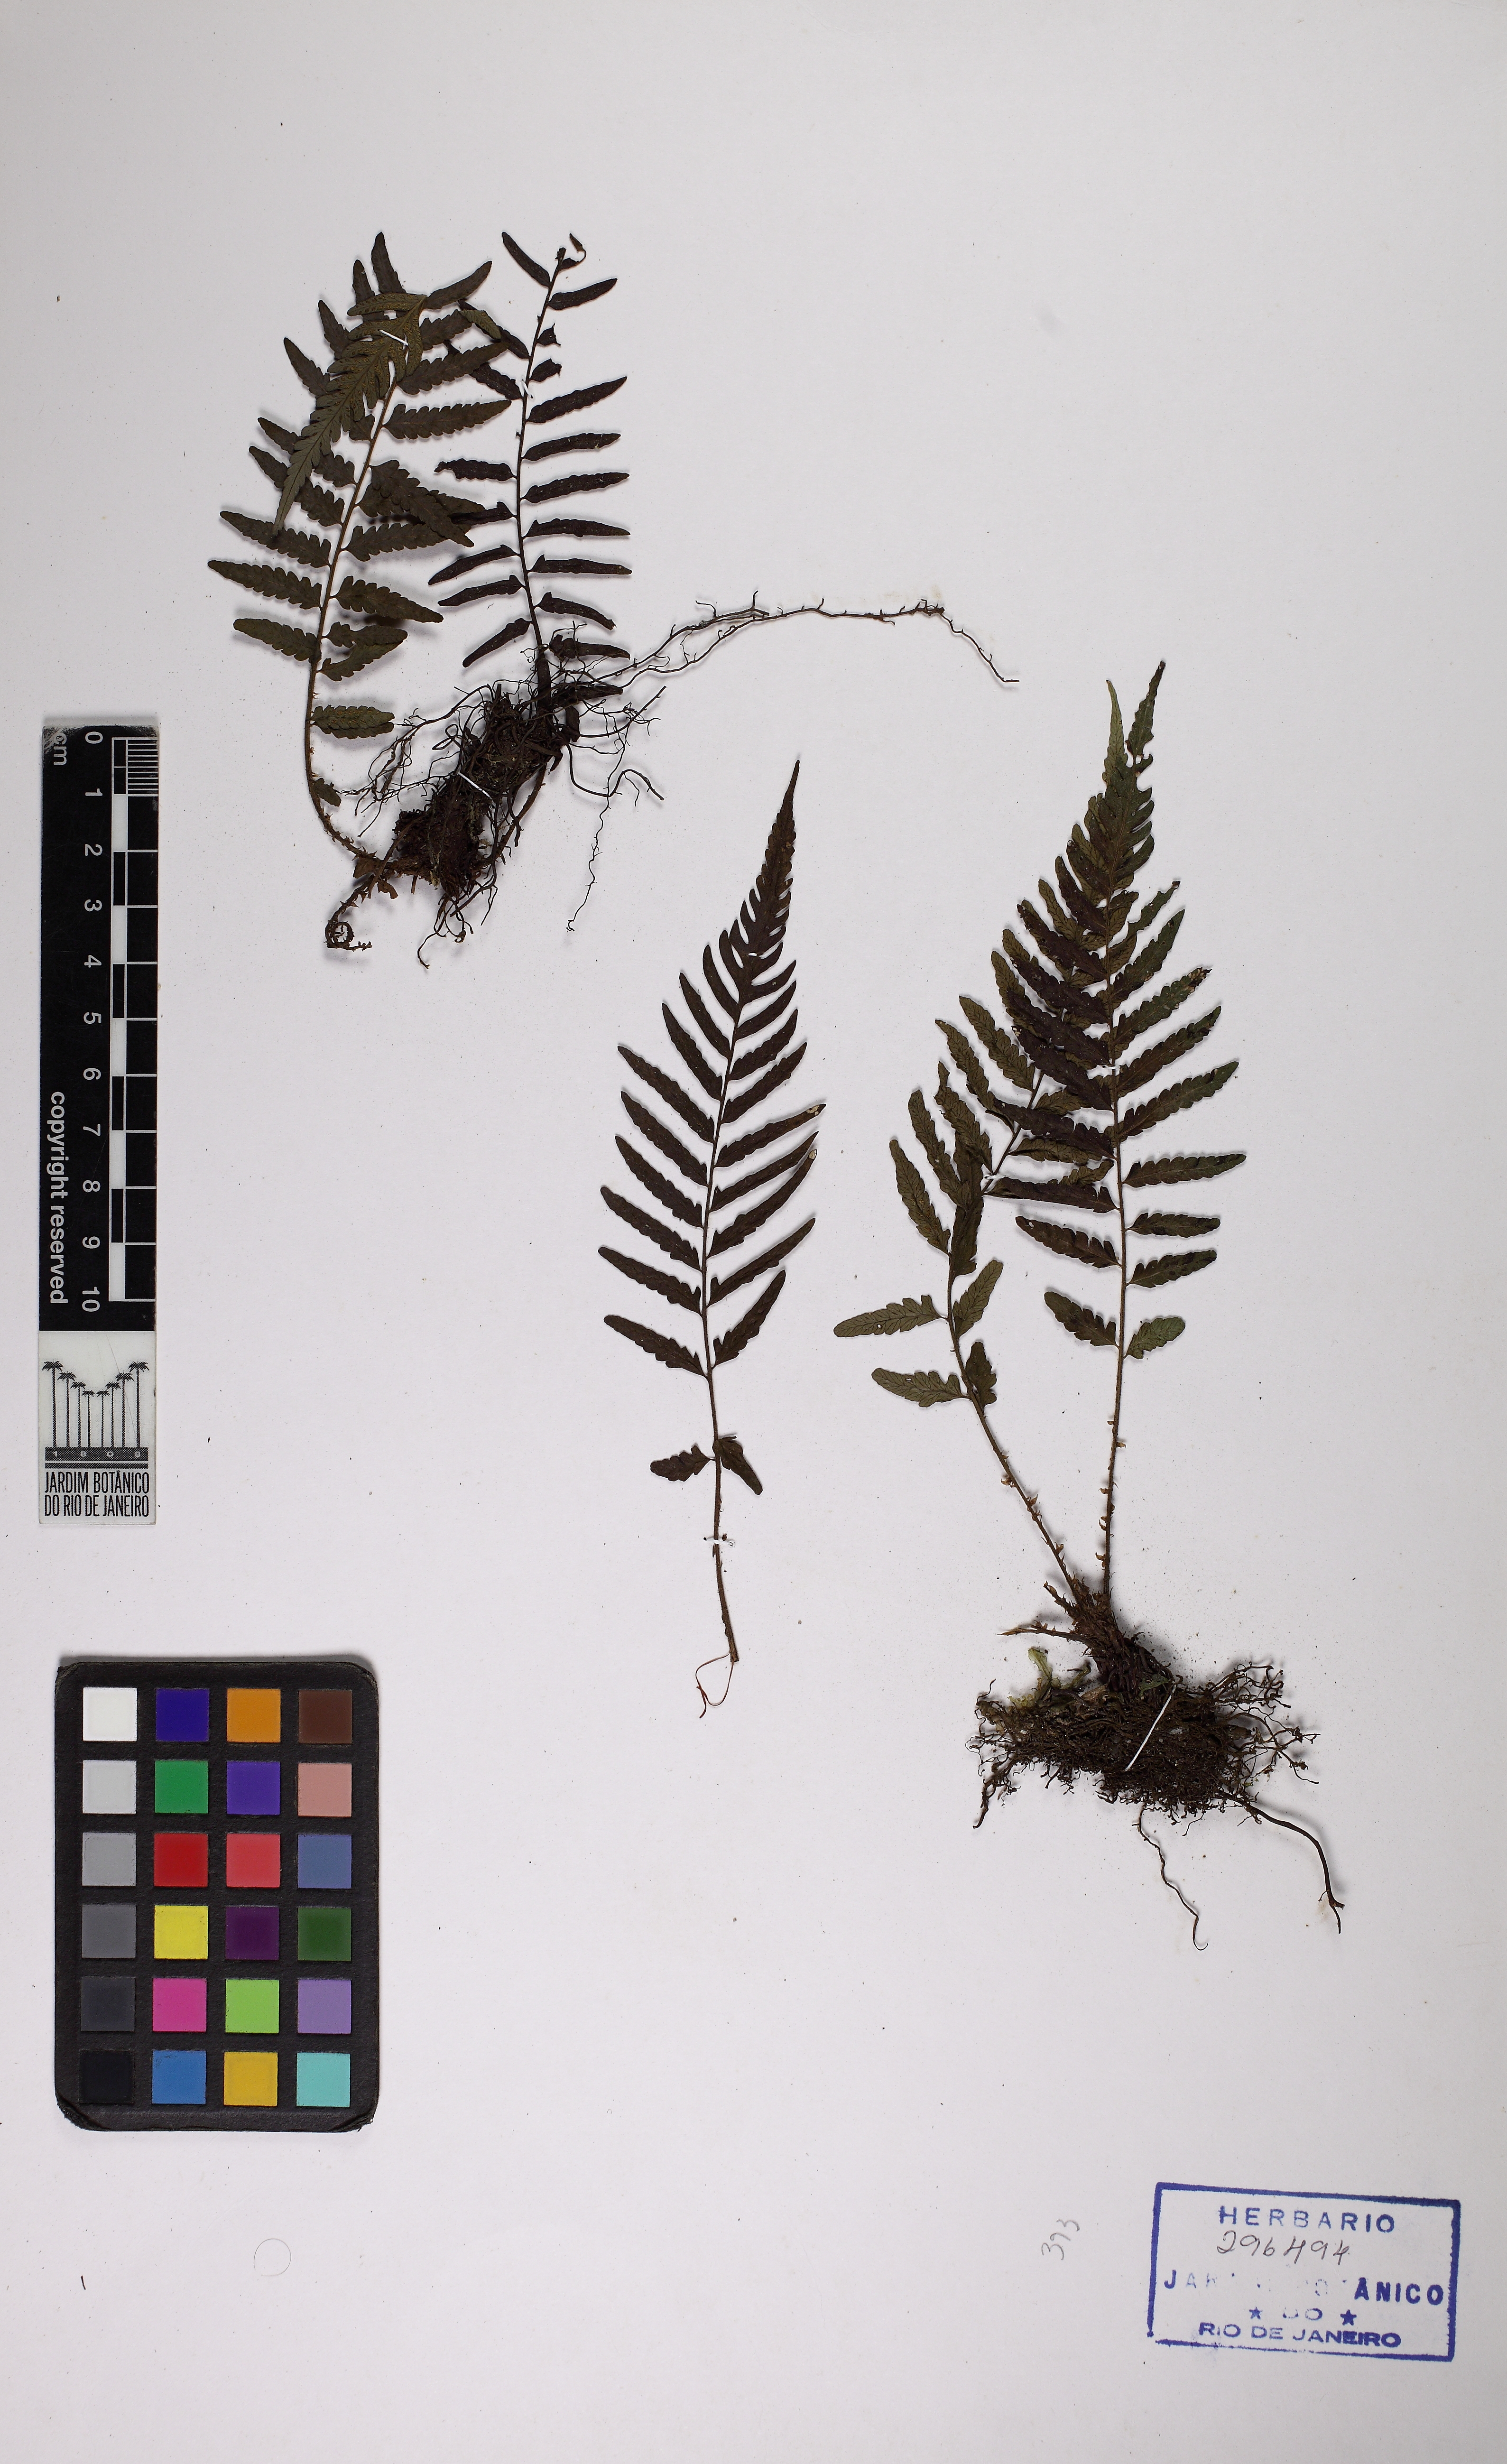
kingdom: Plantae
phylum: Tracheophyta
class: Polypodiopsida
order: Polypodiales
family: Thelypteridaceae
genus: Amauropelta
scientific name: Amauropelta ptarmica
